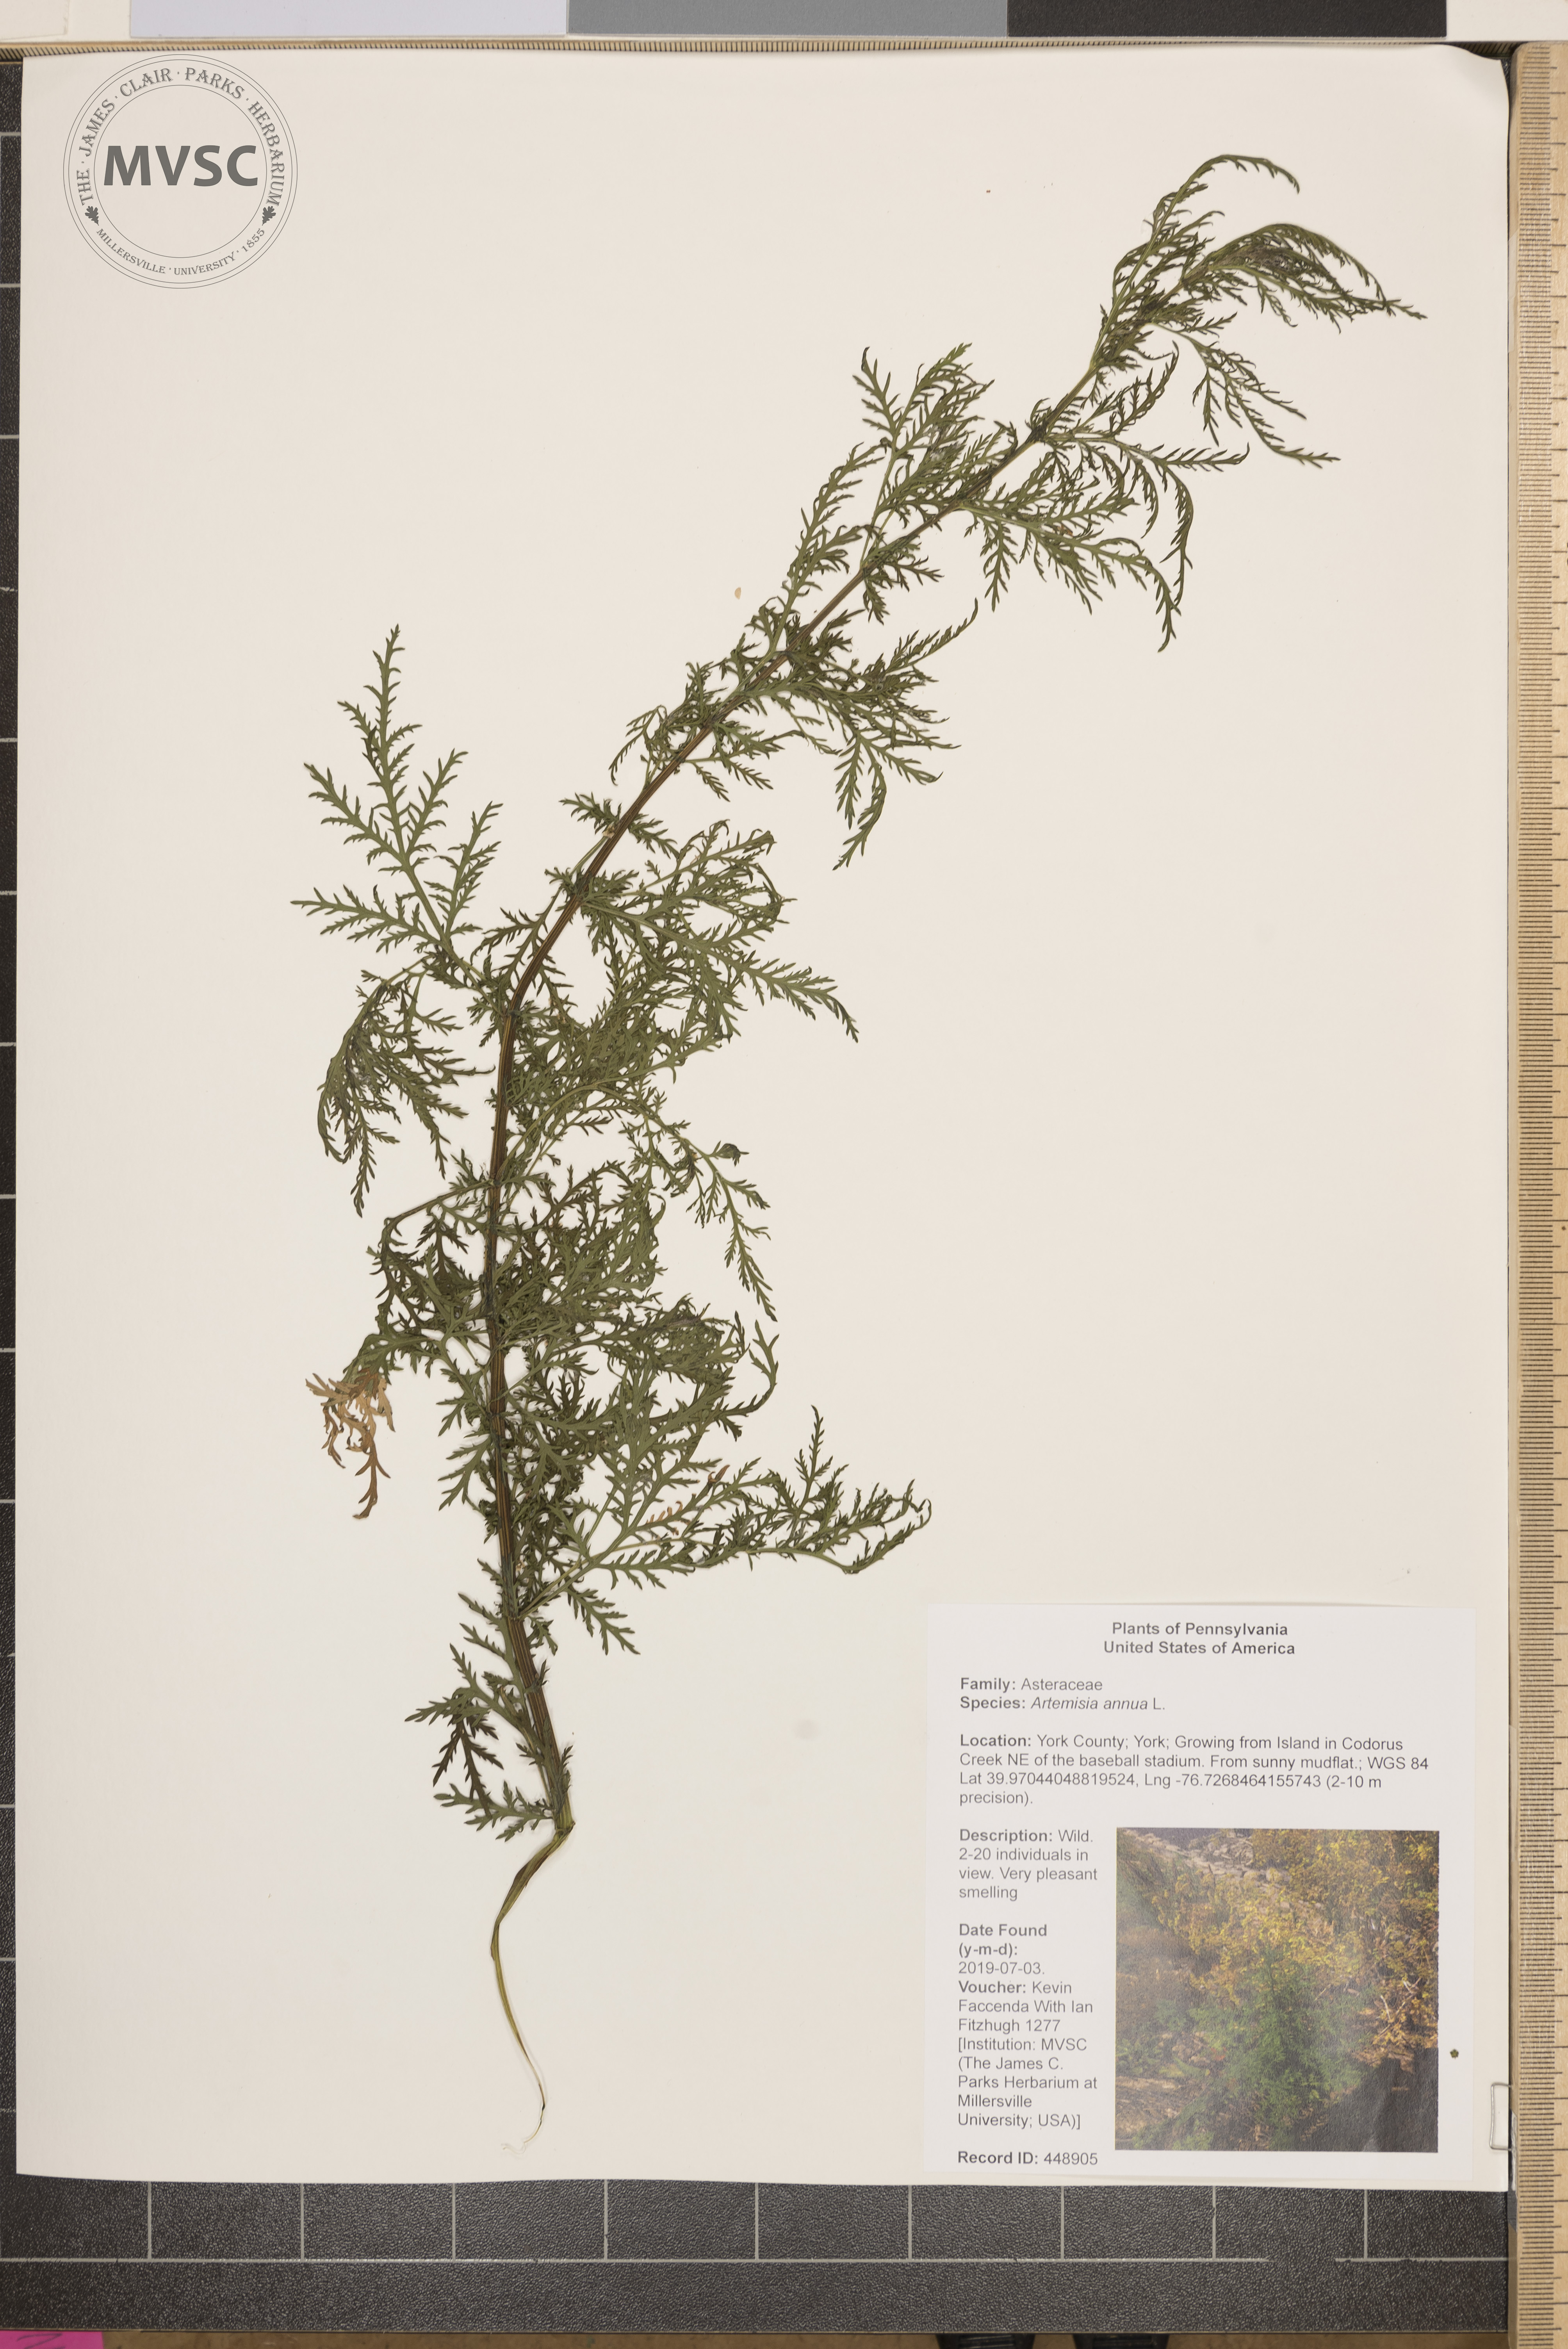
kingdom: Plantae
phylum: Tracheophyta
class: Magnoliopsida
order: Asterales
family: Asteraceae
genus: Artemisia
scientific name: Artemisia annua
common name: Sweet sagewort
